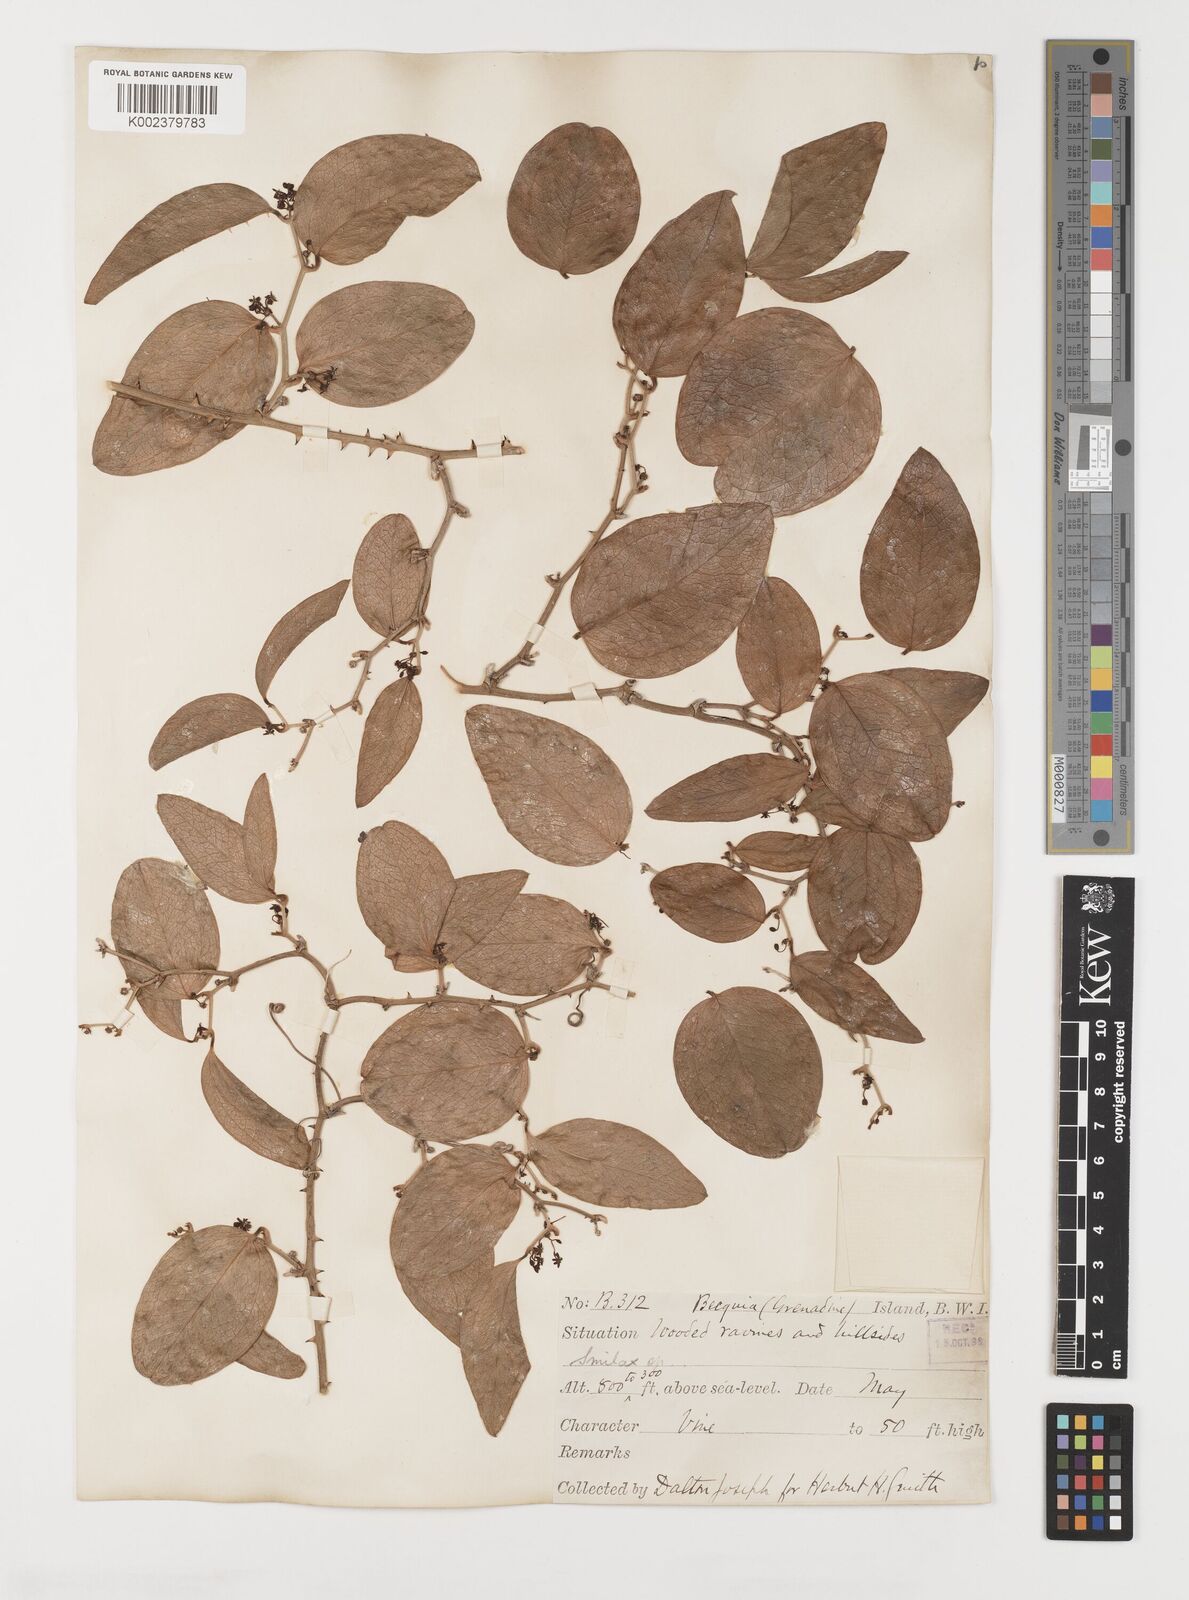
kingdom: Plantae
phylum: Tracheophyta
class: Liliopsida
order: Liliales
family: Smilacaceae
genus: Smilax
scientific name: Smilax oblongata
